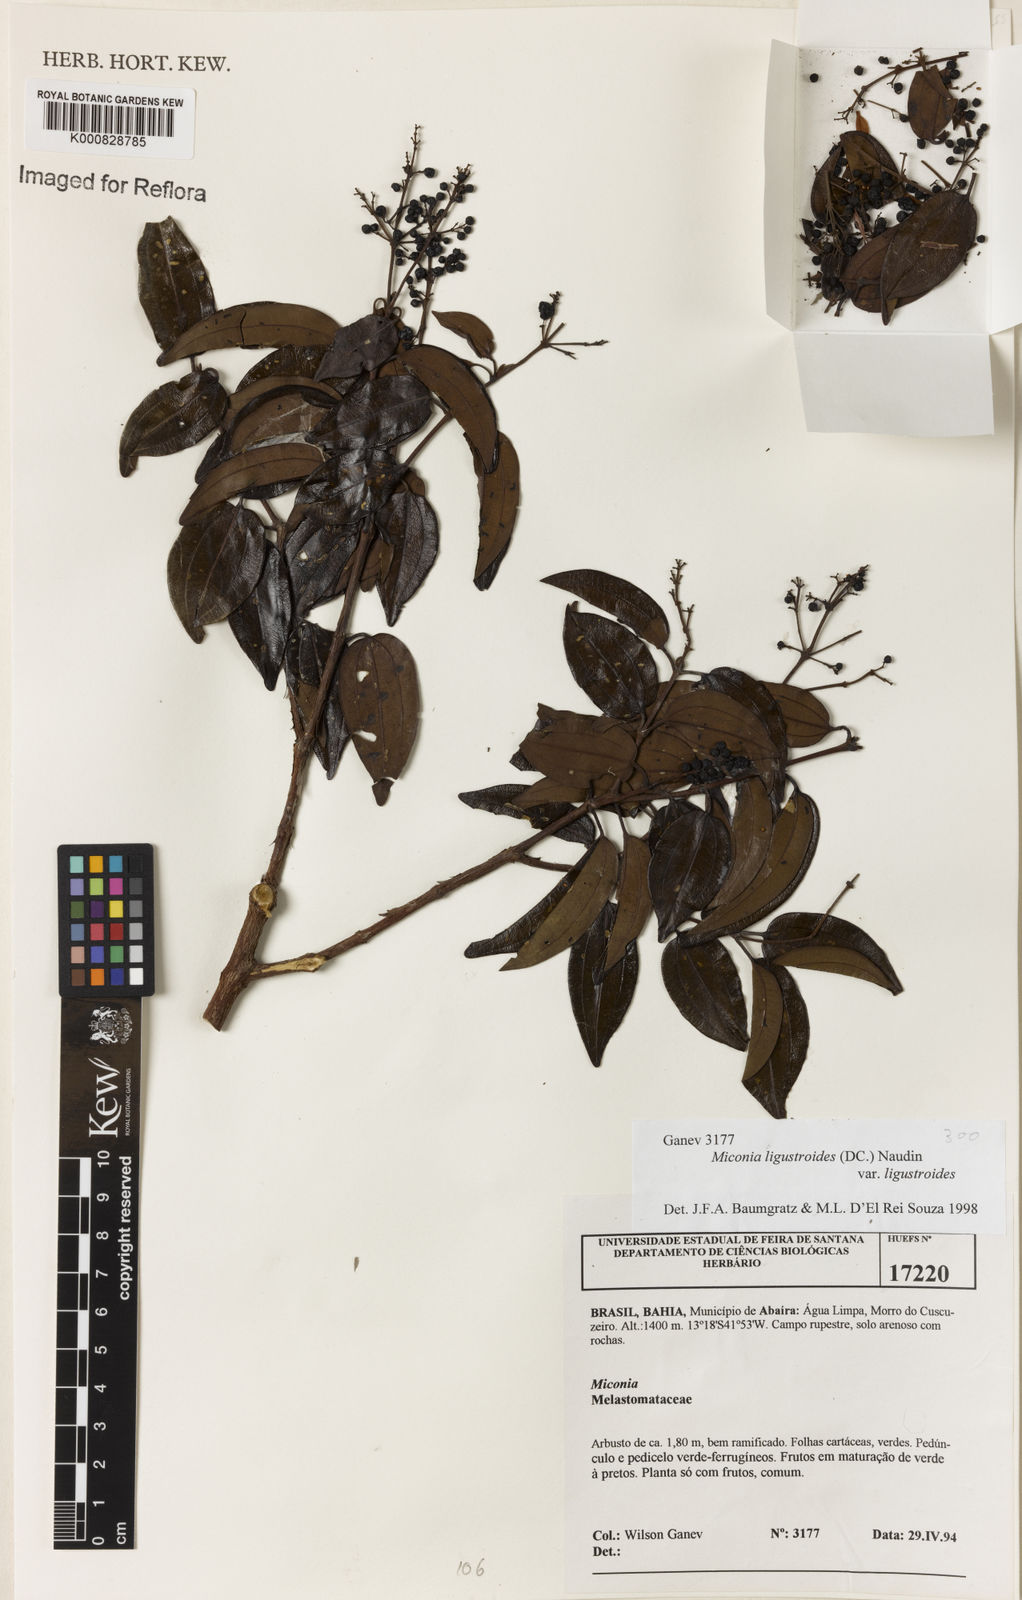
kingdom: Plantae
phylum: Tracheophyta
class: Magnoliopsida
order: Myrtales
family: Melastomataceae
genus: Miconia
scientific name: Miconia ligustroides
